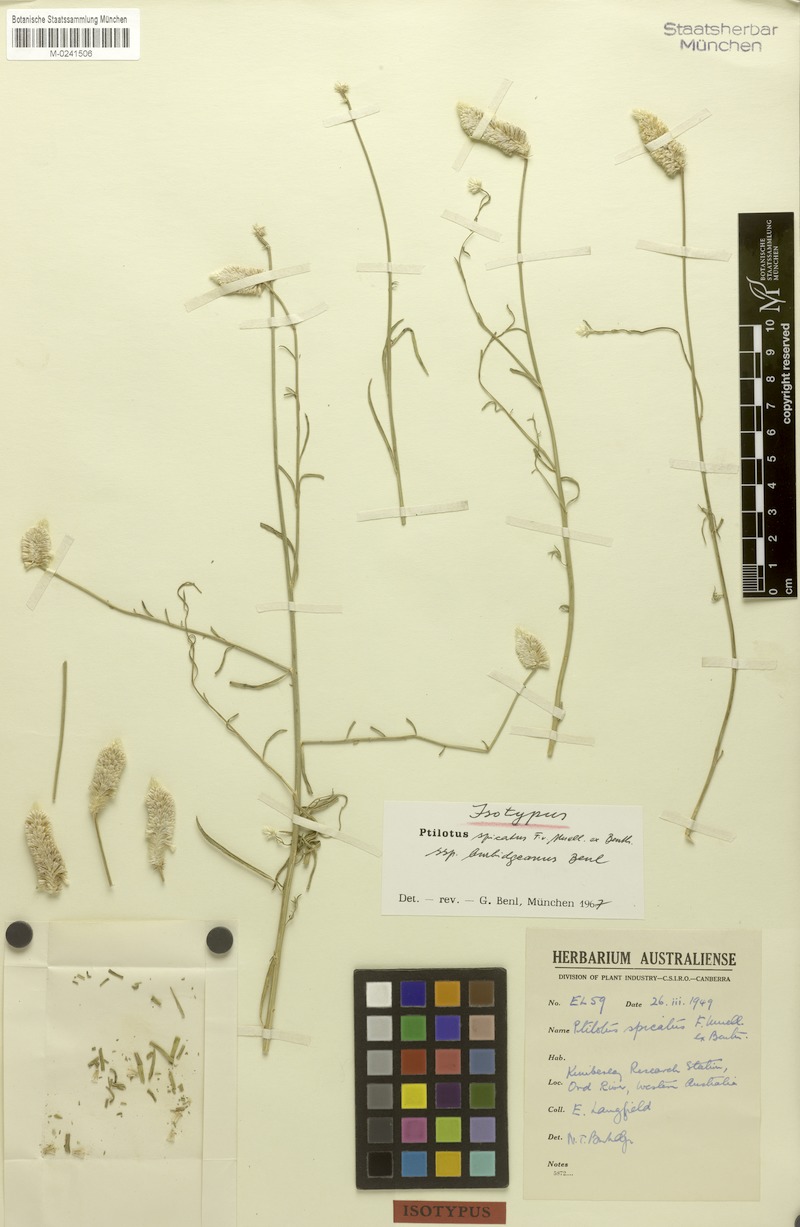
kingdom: Plantae
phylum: Tracheophyta
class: Magnoliopsida
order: Caryophyllales
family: Amaranthaceae
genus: Ptilotus
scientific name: Ptilotus spicatus
